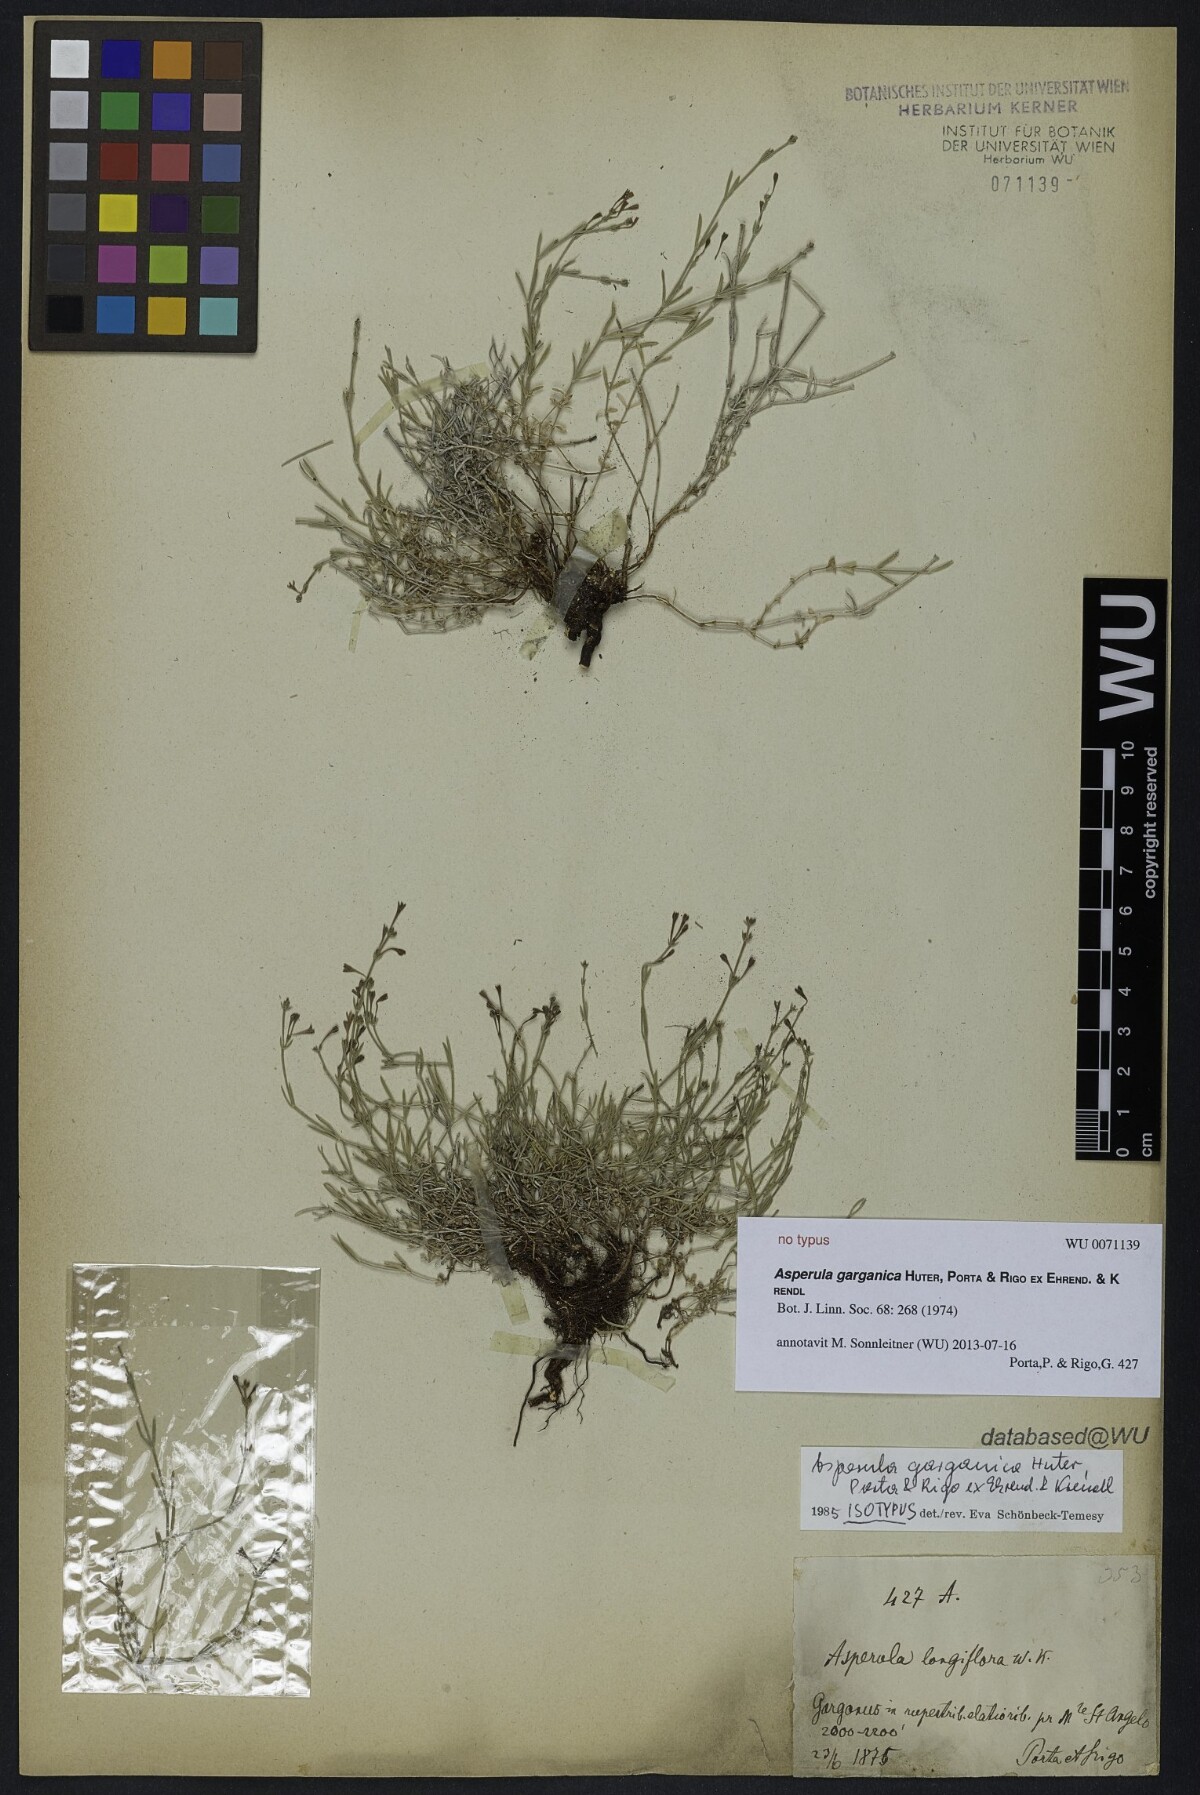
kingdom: Plantae
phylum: Tracheophyta
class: Magnoliopsida
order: Gentianales
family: Rubiaceae
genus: Cynanchica
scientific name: Cynanchica garganica
